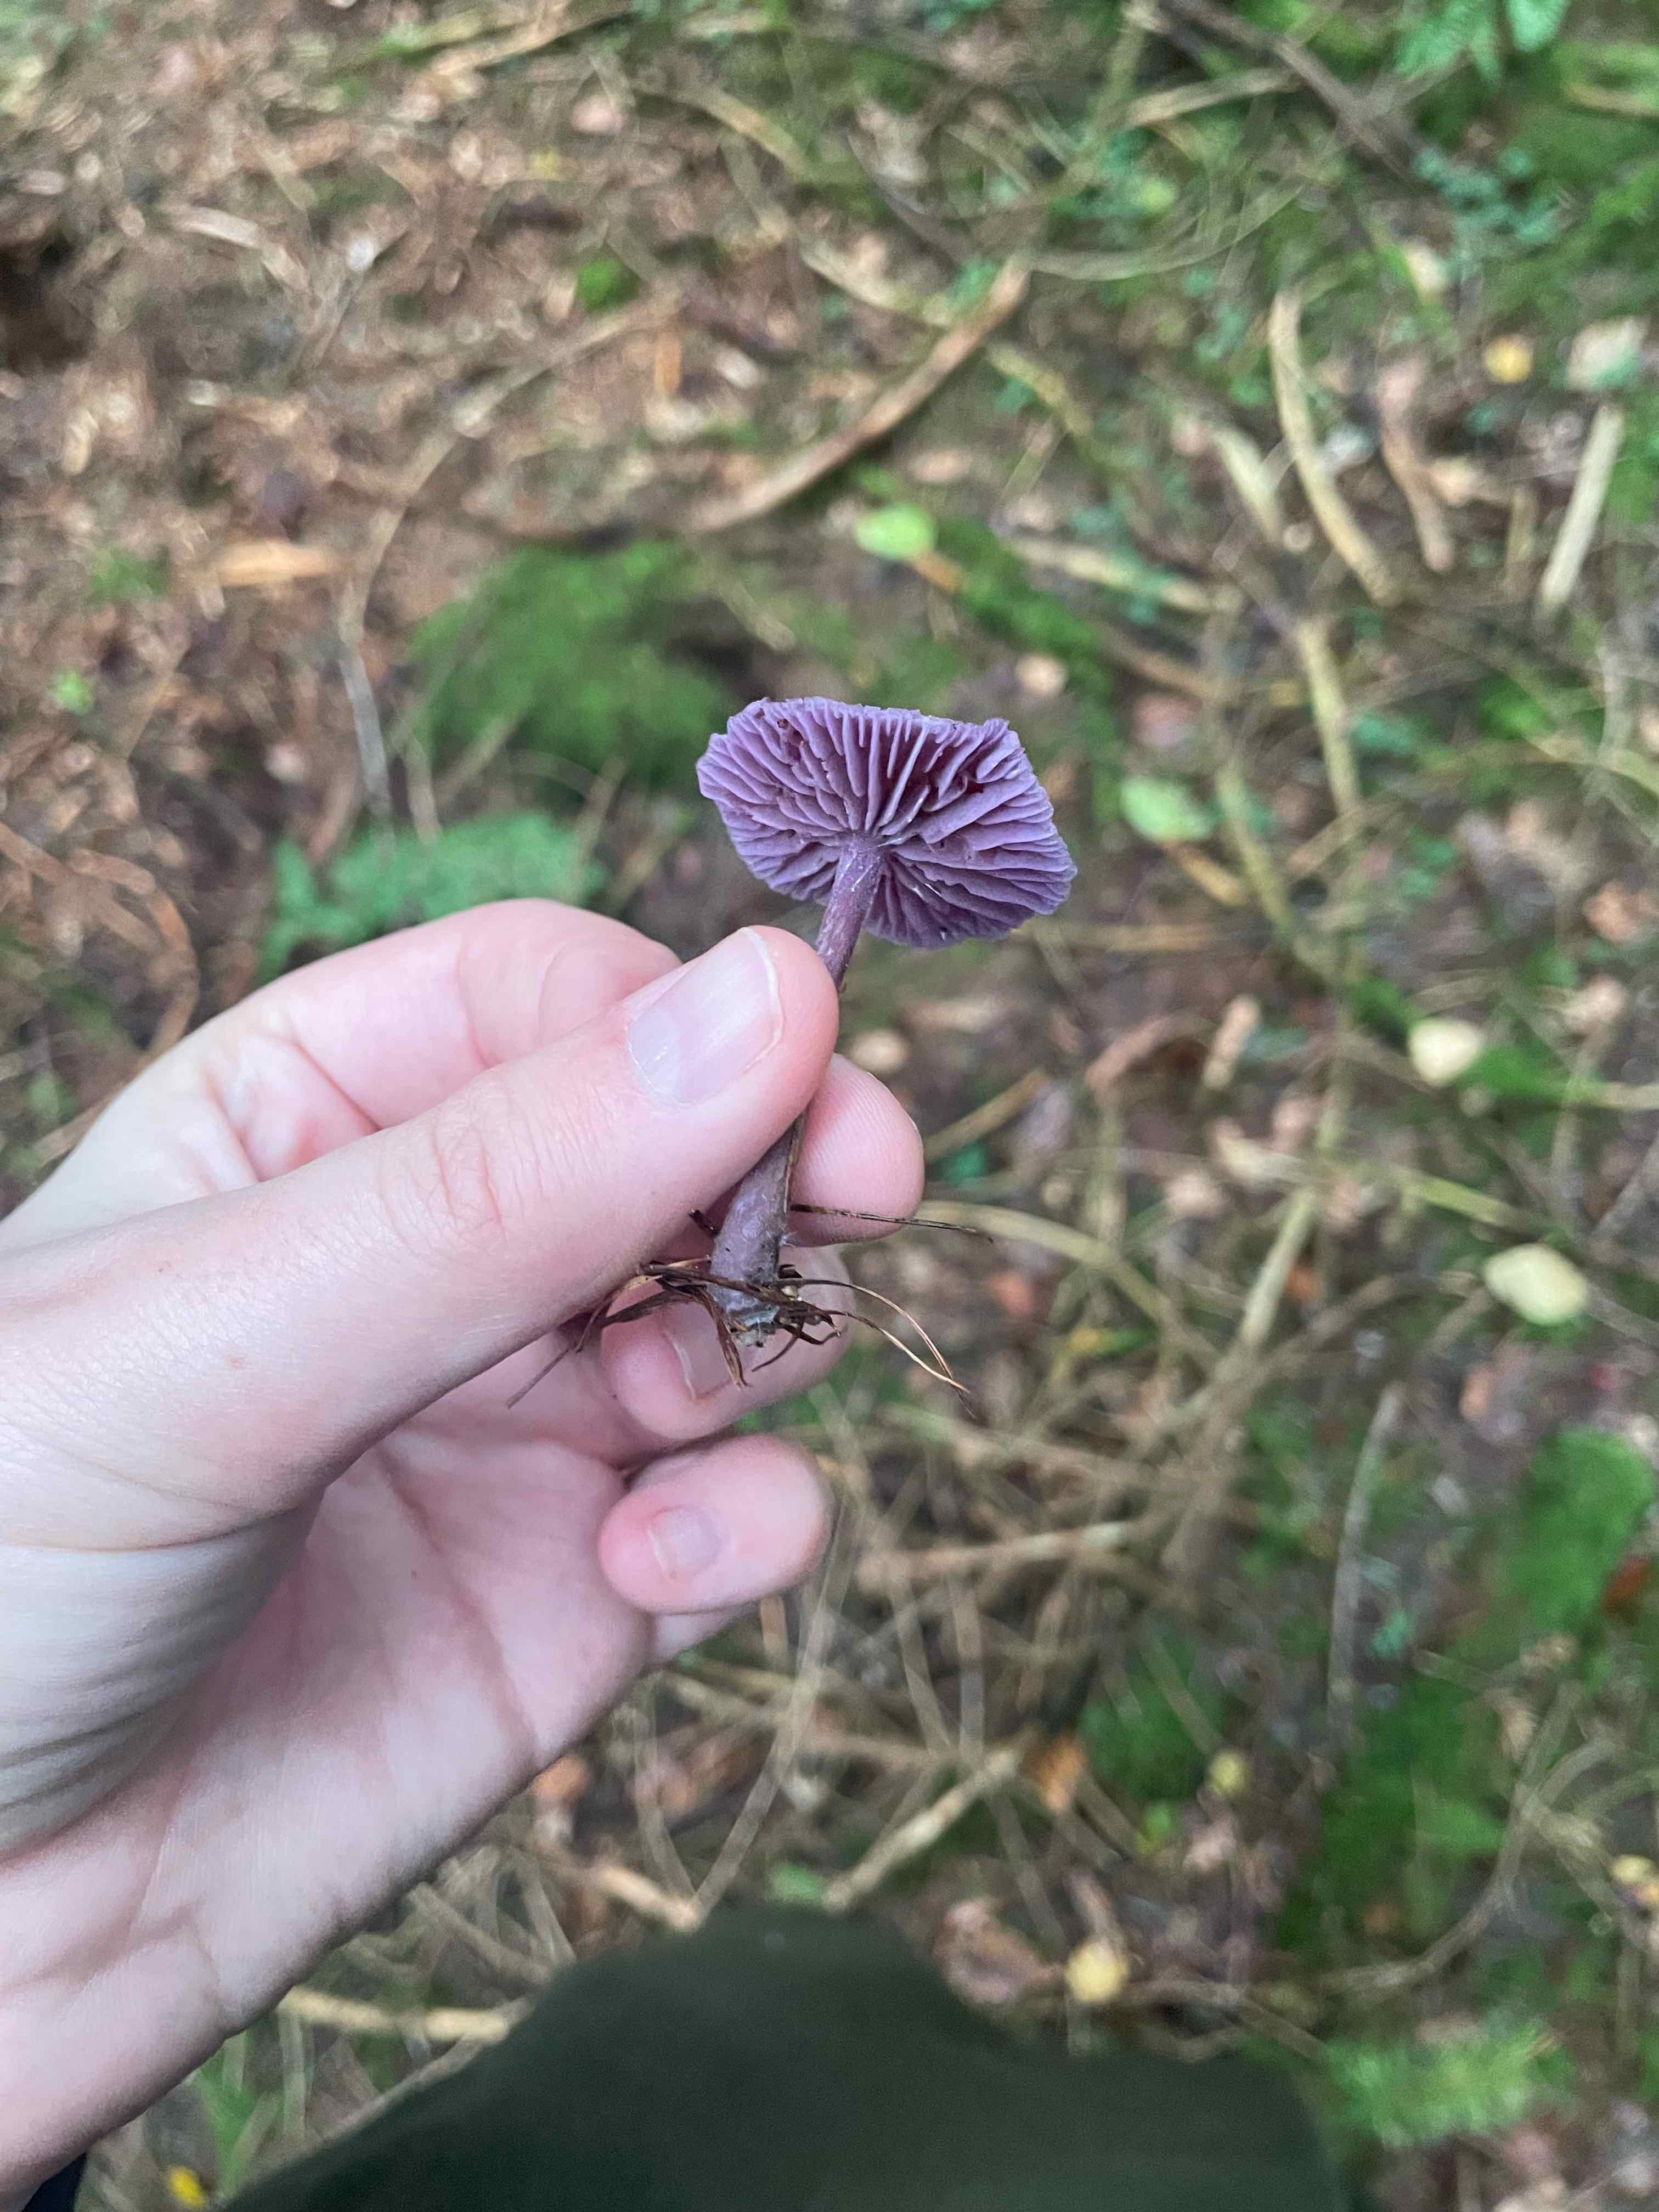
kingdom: Fungi
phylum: Basidiomycota
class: Agaricomycetes
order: Agaricales
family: Hydnangiaceae
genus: Laccaria
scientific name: Laccaria amethystina
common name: violet ametysthat
